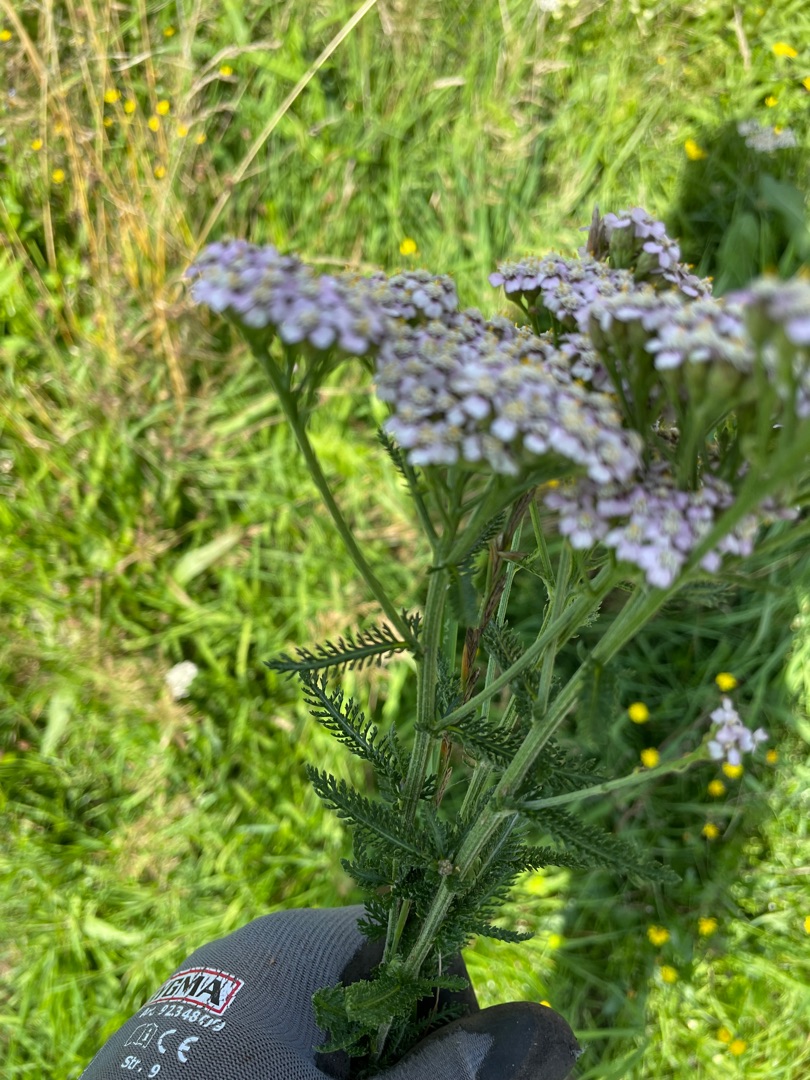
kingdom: Plantae
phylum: Tracheophyta
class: Magnoliopsida
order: Asterales
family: Asteraceae
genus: Achillea
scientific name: Achillea millefolium
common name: Almindelig røllike
